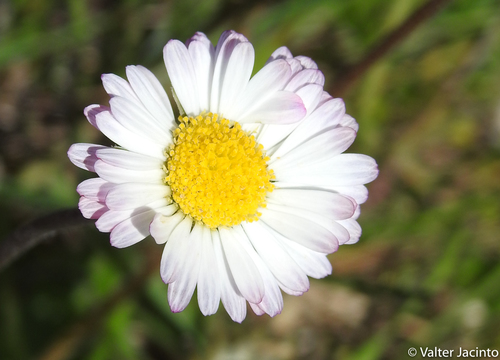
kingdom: Plantae
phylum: Tracheophyta
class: Magnoliopsida
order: Asterales
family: Asteraceae
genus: Bellis
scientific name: Bellis perennis
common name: Lawndaisy
